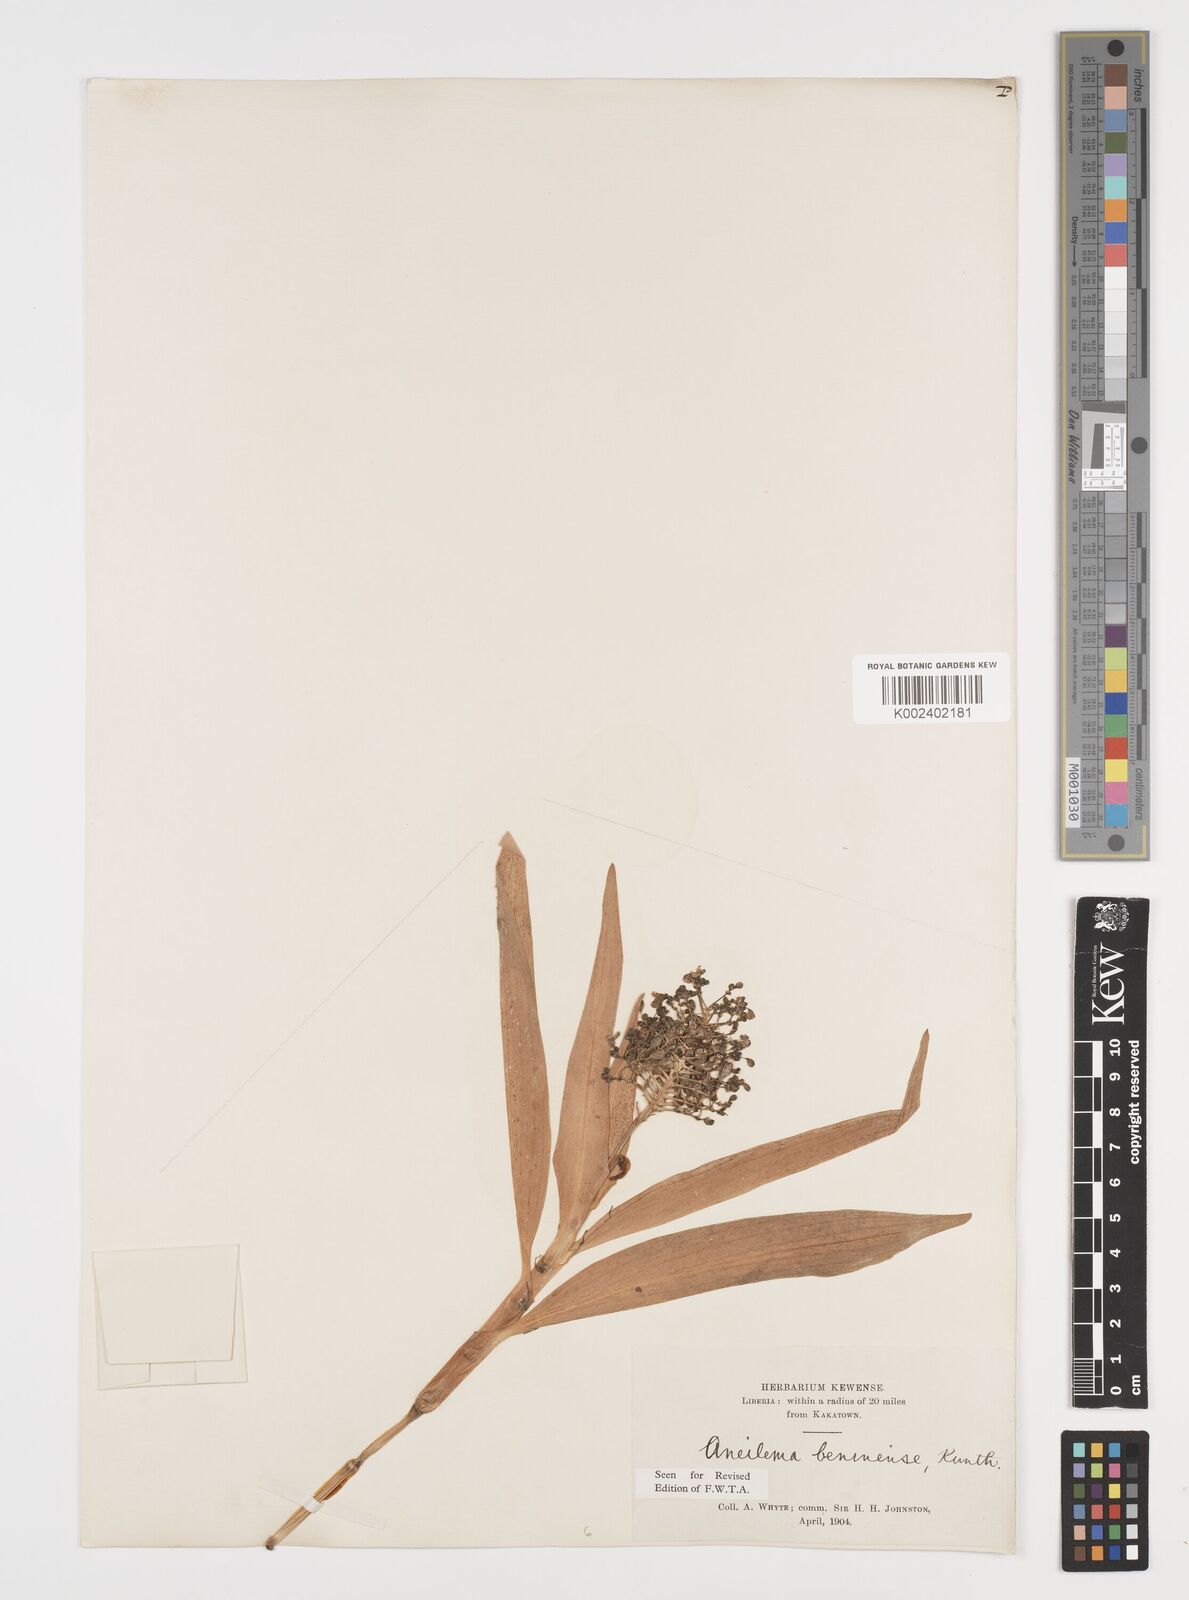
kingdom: Plantae
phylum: Tracheophyta
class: Liliopsida
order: Commelinales
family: Commelinaceae
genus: Aneilema
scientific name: Aneilema beniniense
